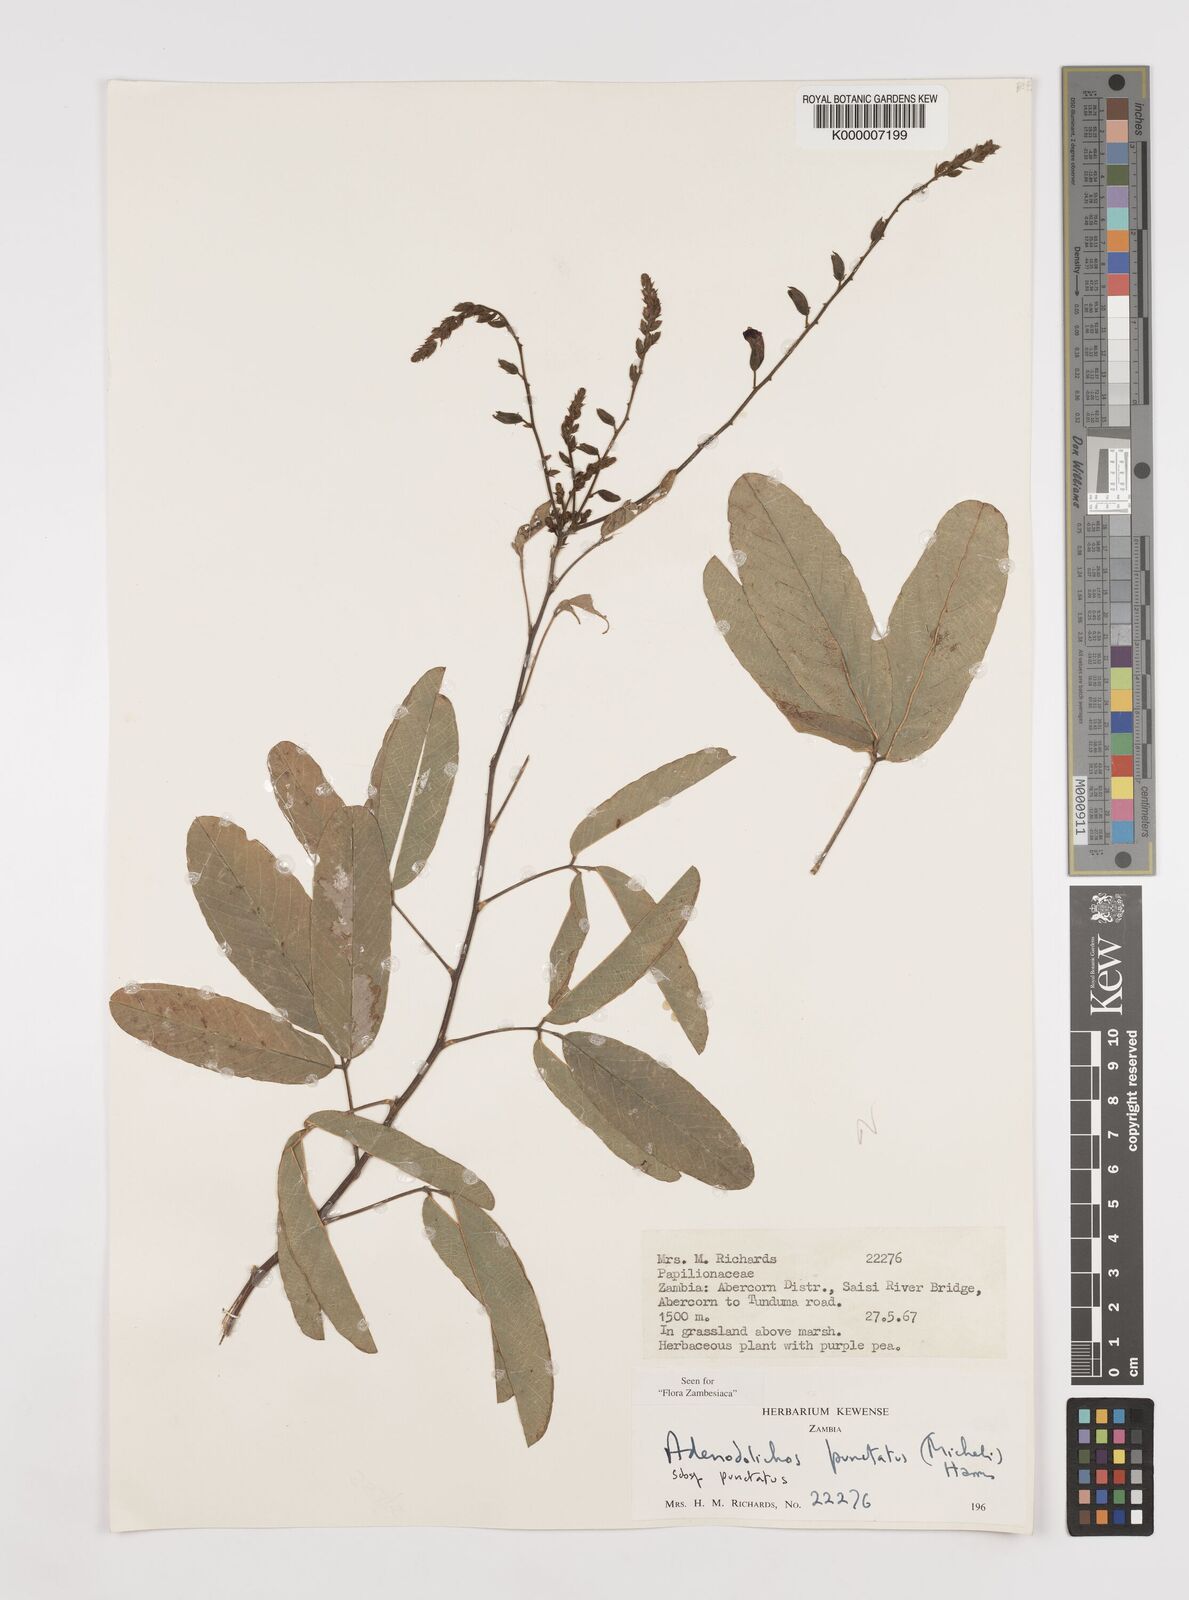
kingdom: Plantae
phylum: Tracheophyta
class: Magnoliopsida
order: Fabales
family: Fabaceae
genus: Adenodolichos
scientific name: Adenodolichos punctatus
